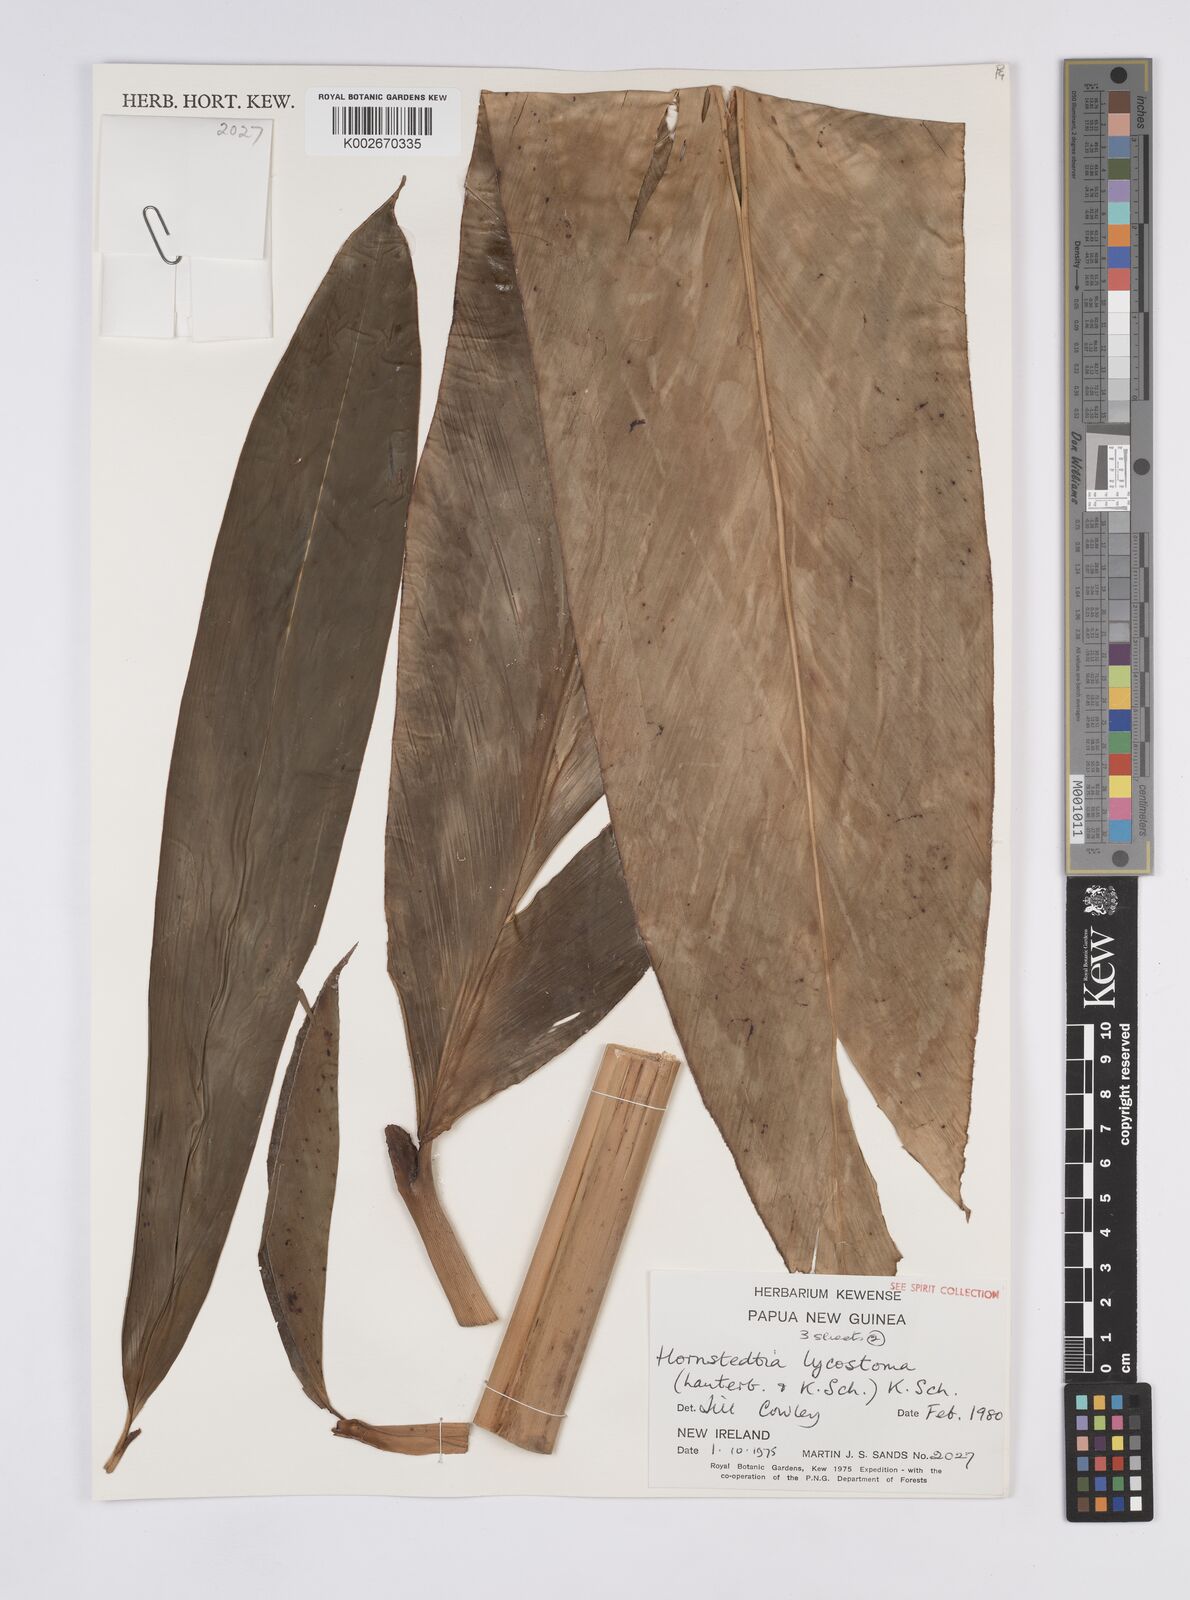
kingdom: Plantae
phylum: Tracheophyta
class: Liliopsida
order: Zingiberales
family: Zingiberaceae
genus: Hornstedtia
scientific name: Hornstedtia scottiana
